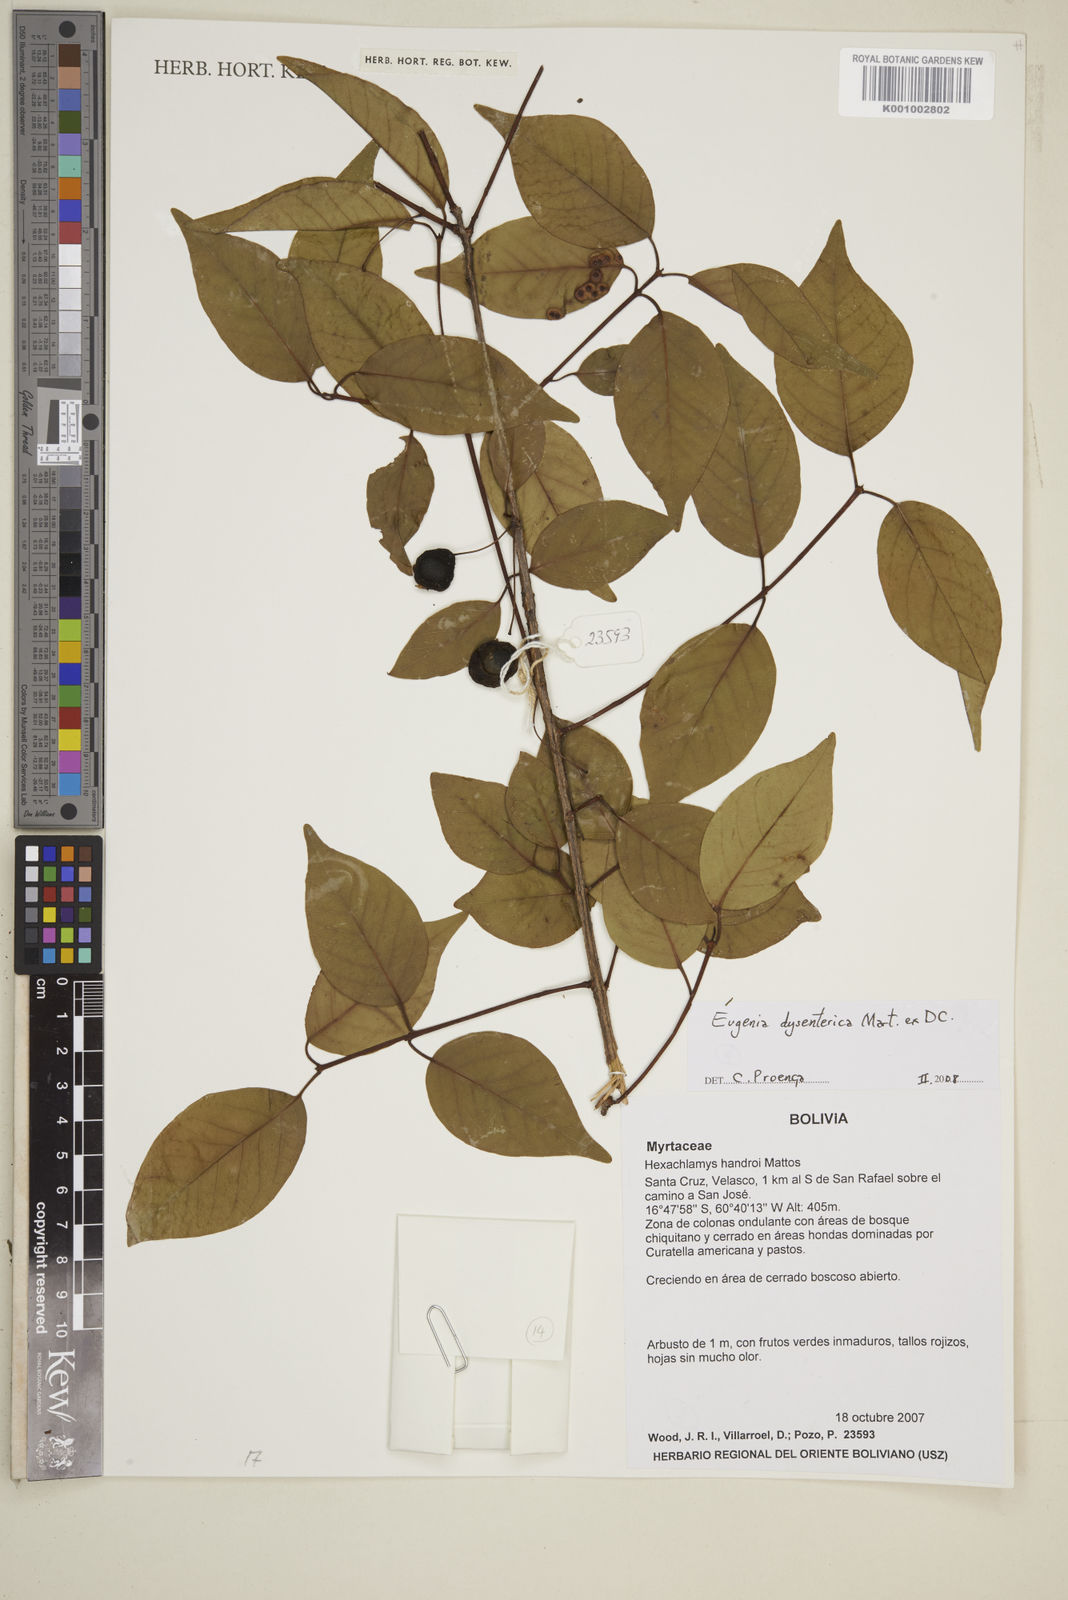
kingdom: Plantae
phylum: Tracheophyta
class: Magnoliopsida
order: Myrtales
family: Myrtaceae
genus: Eugenia
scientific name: Eugenia dysenterica
